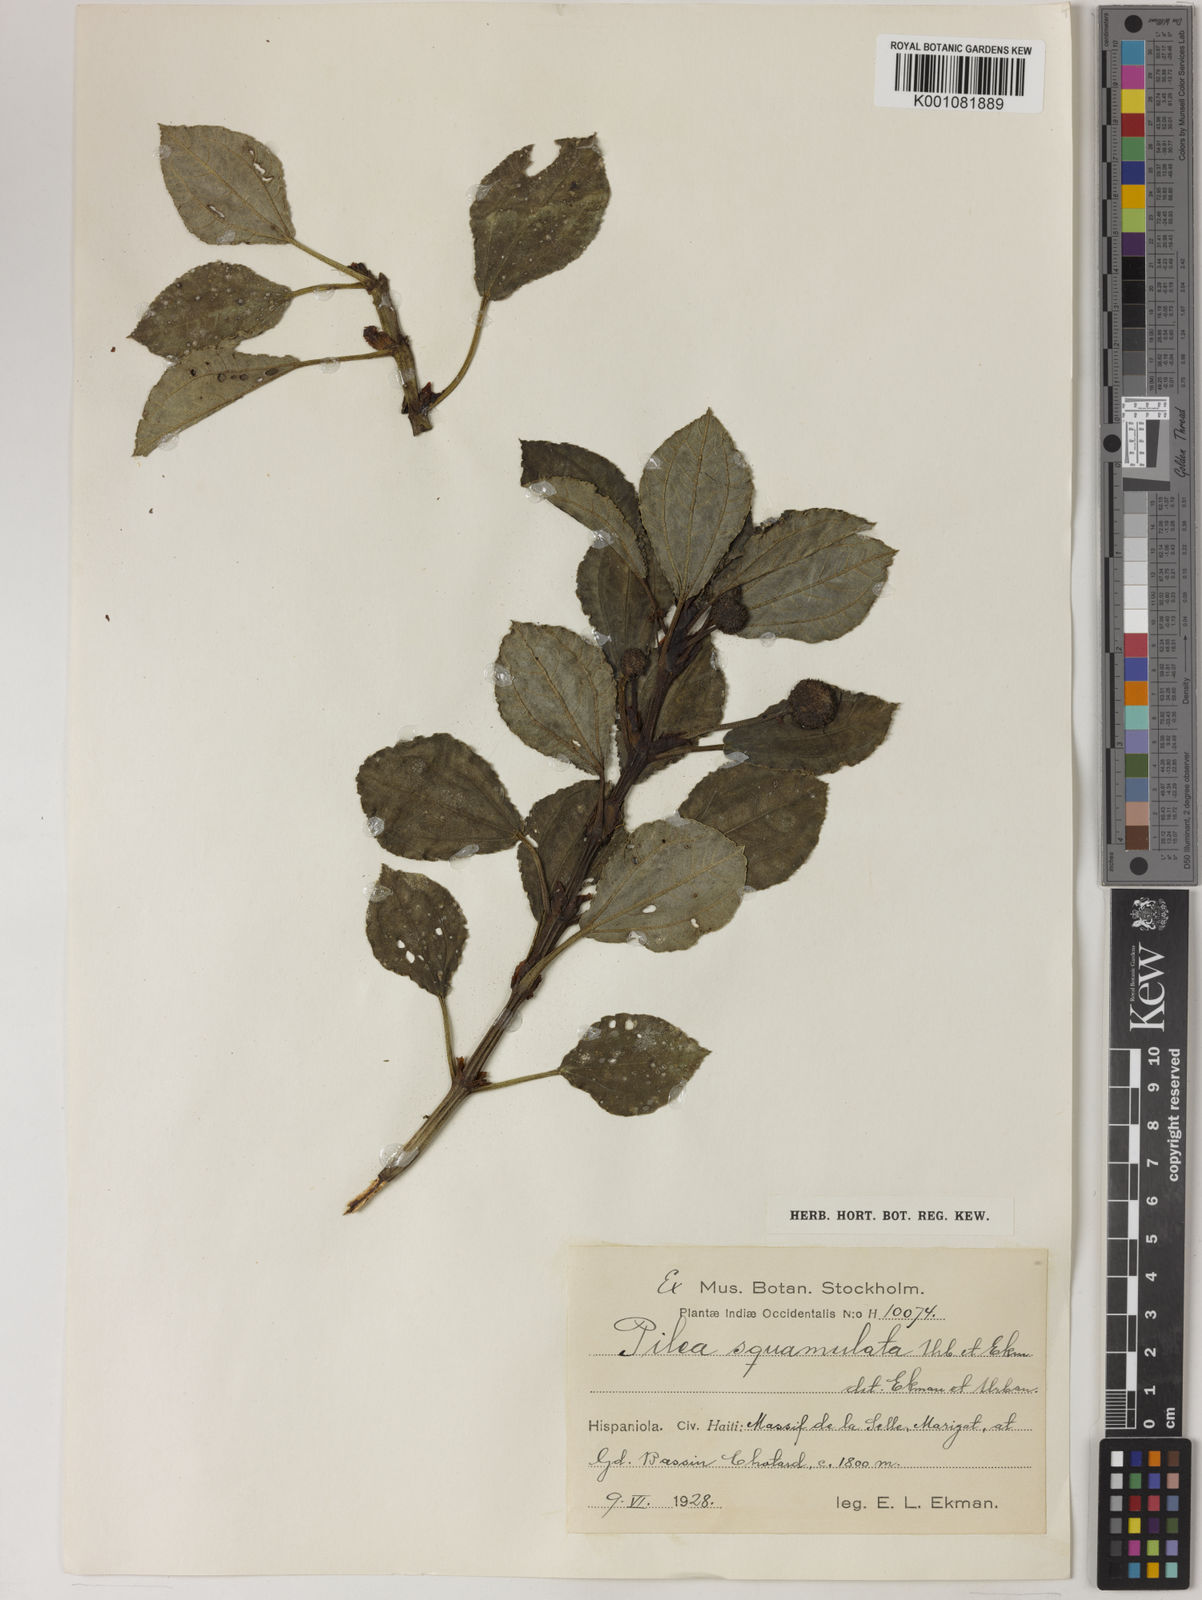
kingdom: Plantae
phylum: Tracheophyta
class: Magnoliopsida
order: Rosales
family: Urticaceae
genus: Pilea
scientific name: Pilea squamulata
